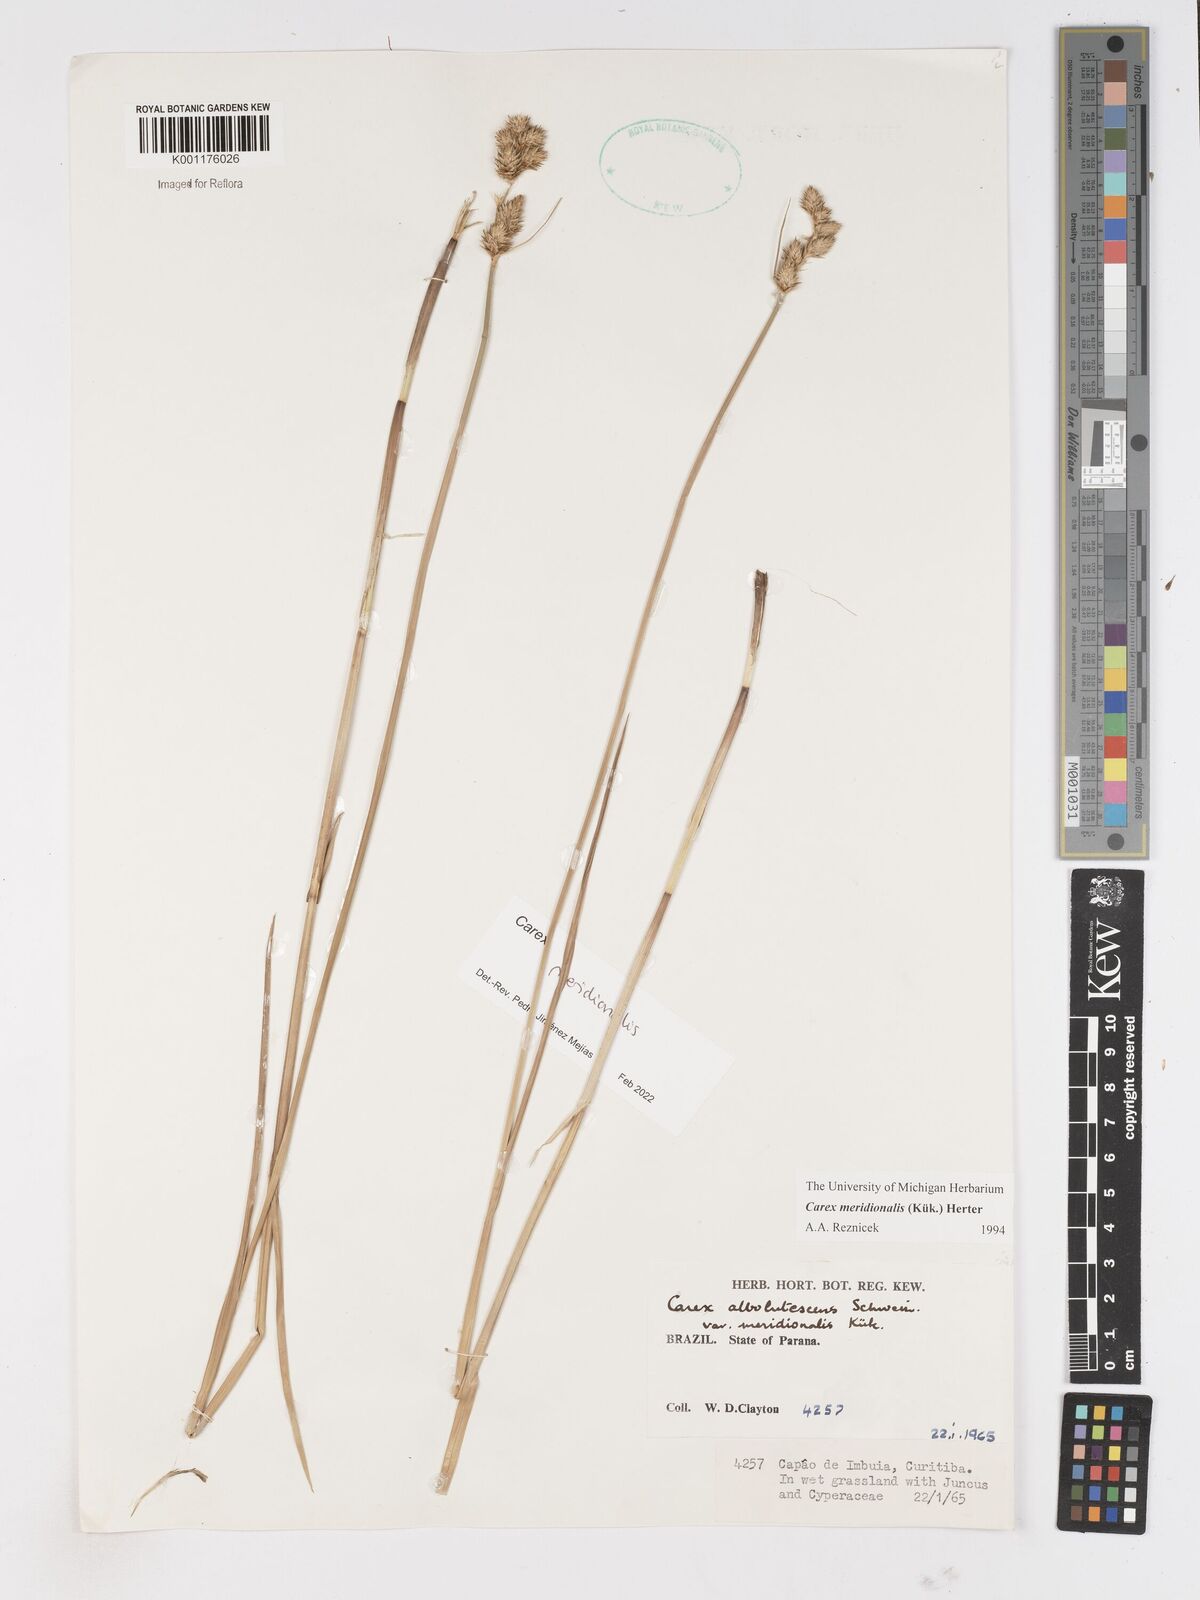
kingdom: Plantae
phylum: Tracheophyta
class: Liliopsida
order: Poales
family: Cyperaceae
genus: Carex
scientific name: Carex meridionalis
